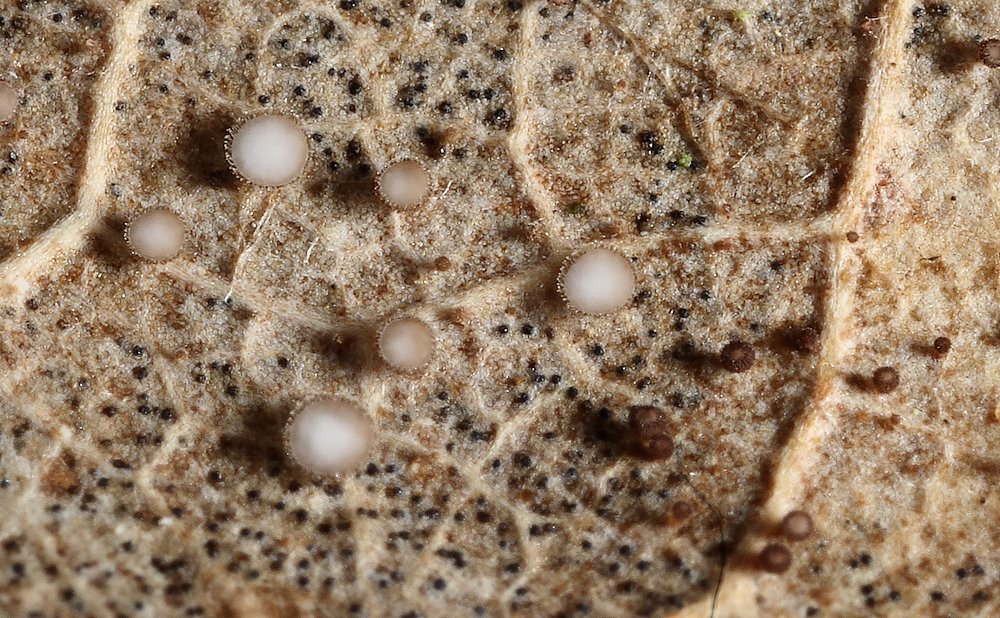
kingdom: Fungi
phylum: Ascomycota
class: Leotiomycetes
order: Helotiales
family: Lachnaceae
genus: Brunnipila
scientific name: Brunnipila brunneola
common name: læderbrun frynseskive
